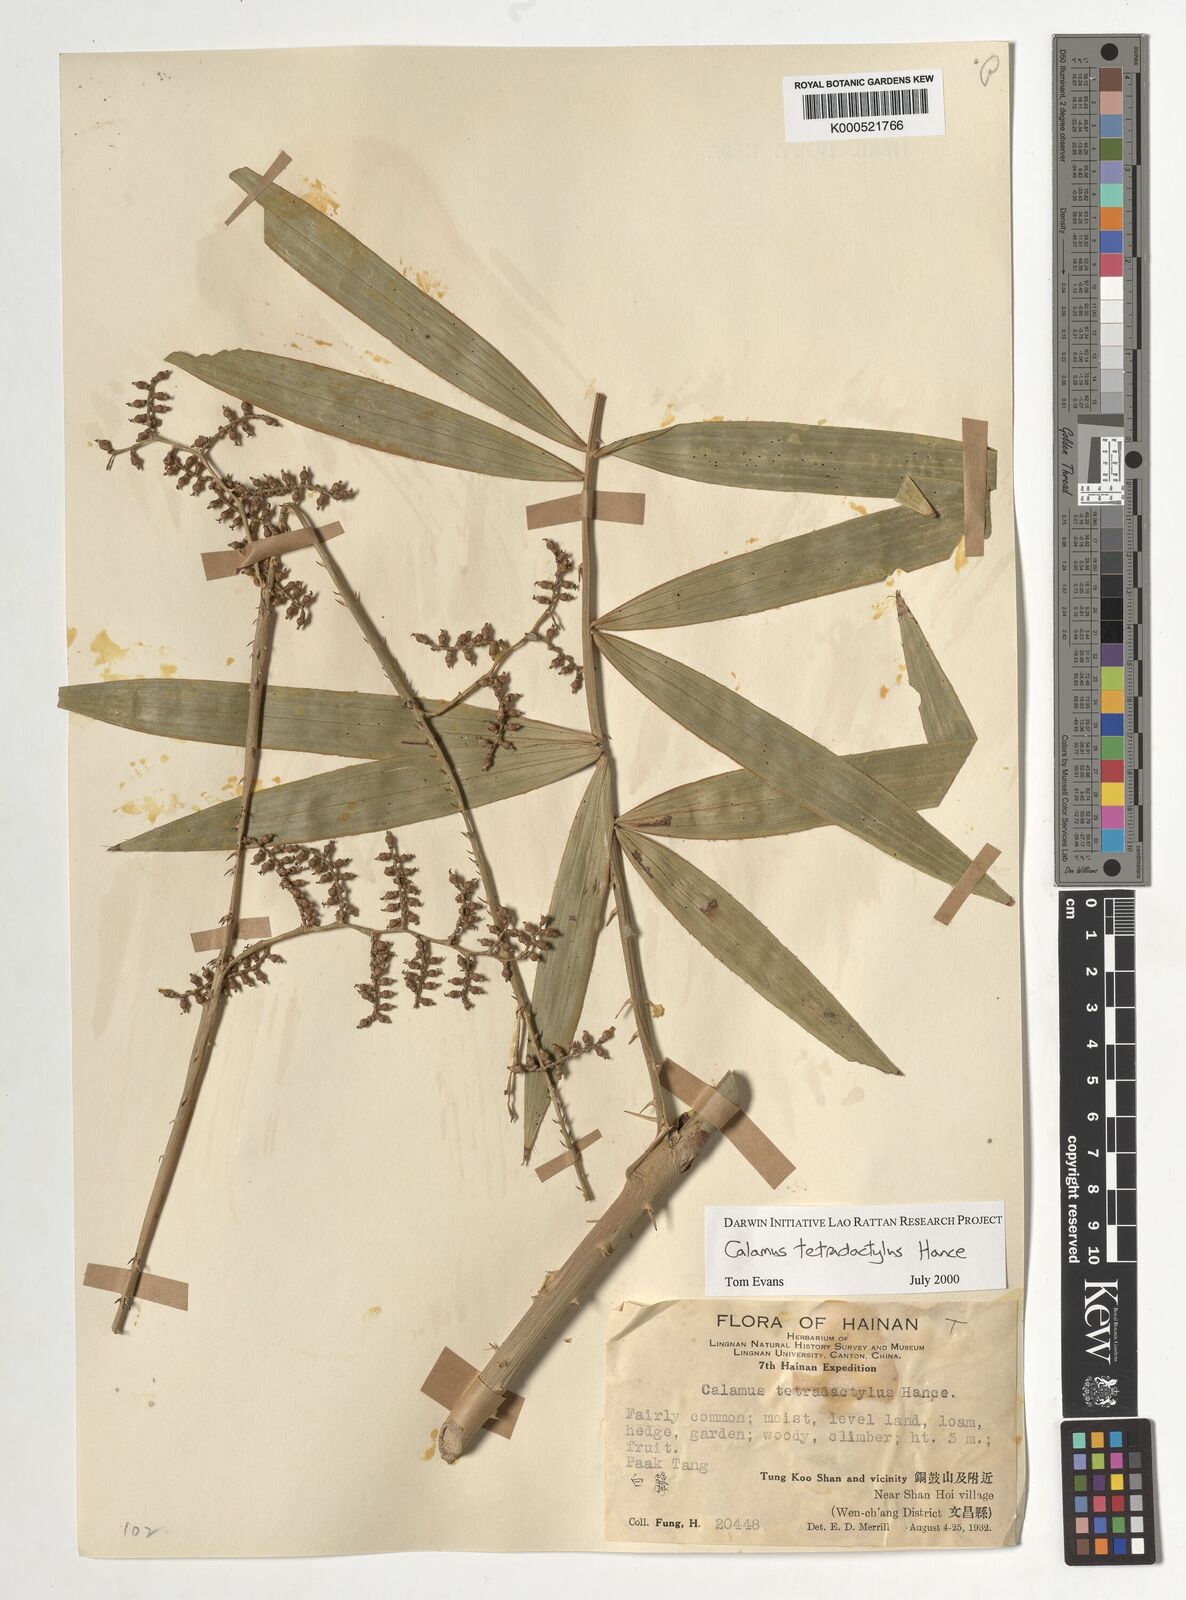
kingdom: Plantae
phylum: Tracheophyta
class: Liliopsida
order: Arecales
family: Arecaceae
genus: Calamus
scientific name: Calamus tetradactylus
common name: White rattan
